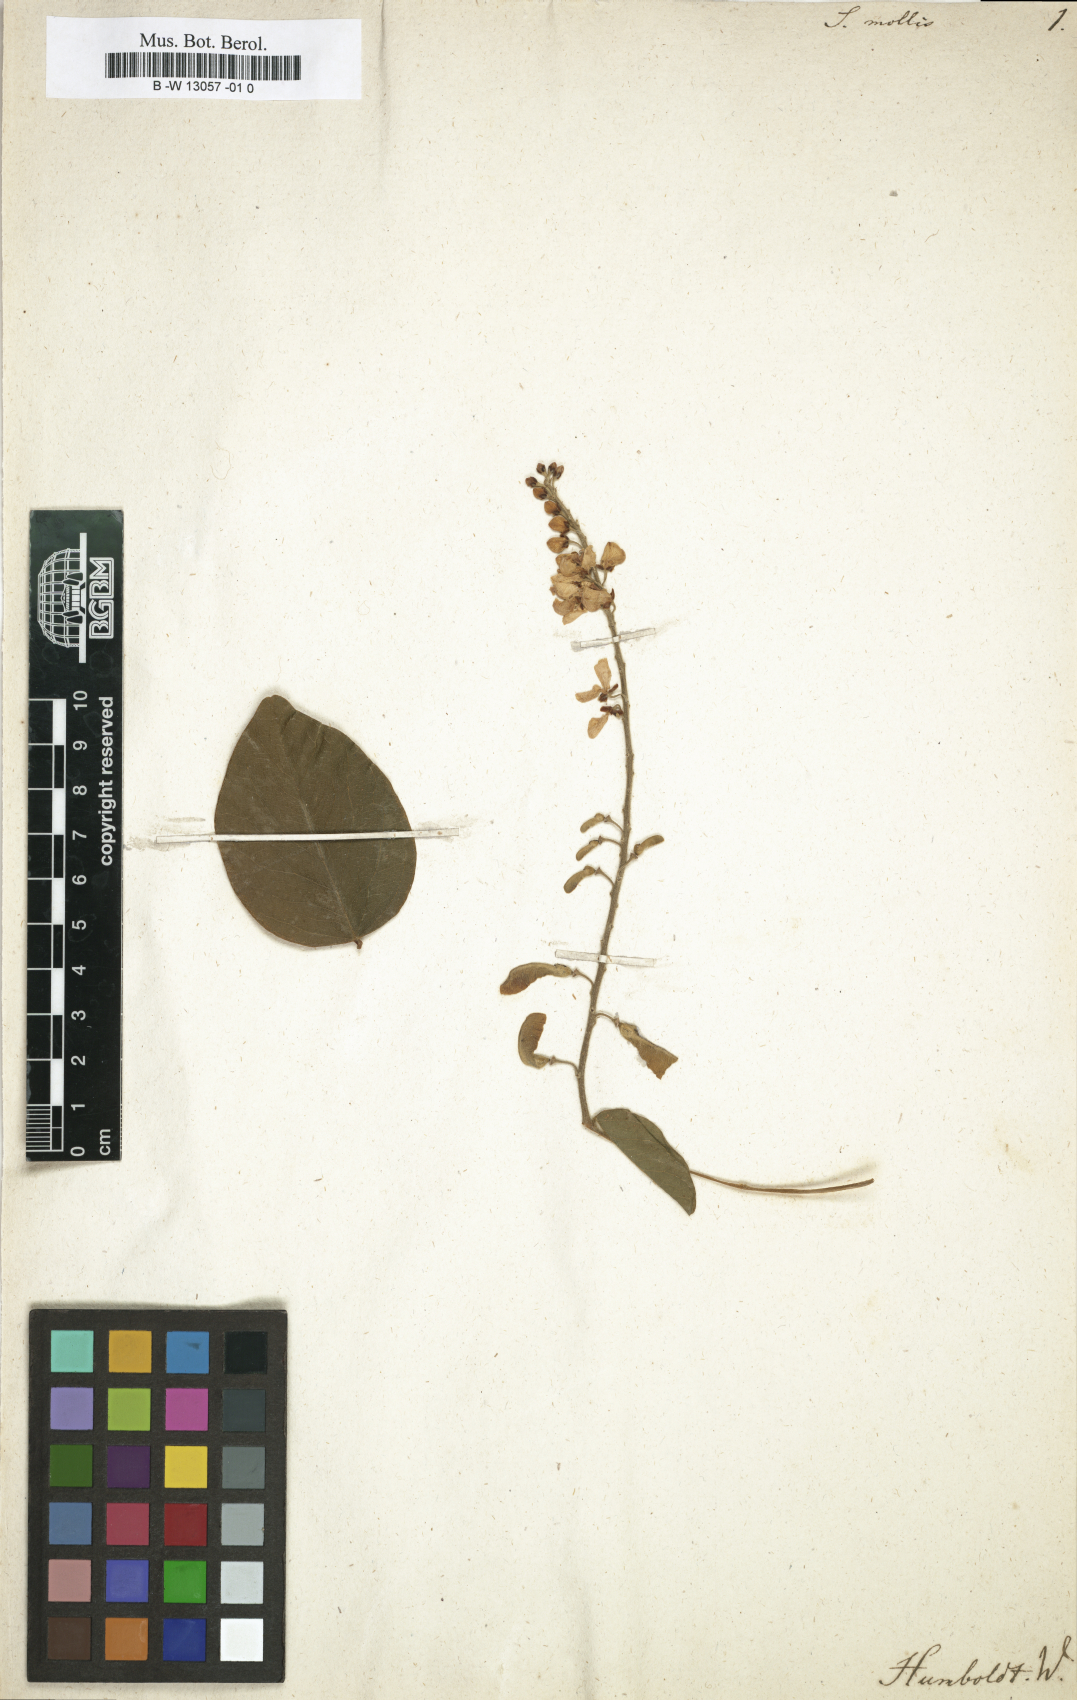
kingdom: Plantae
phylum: Tracheophyta
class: Magnoliopsida
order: Fabales
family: Polygalaceae
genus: Securidaca
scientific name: Securidaca coriacea
